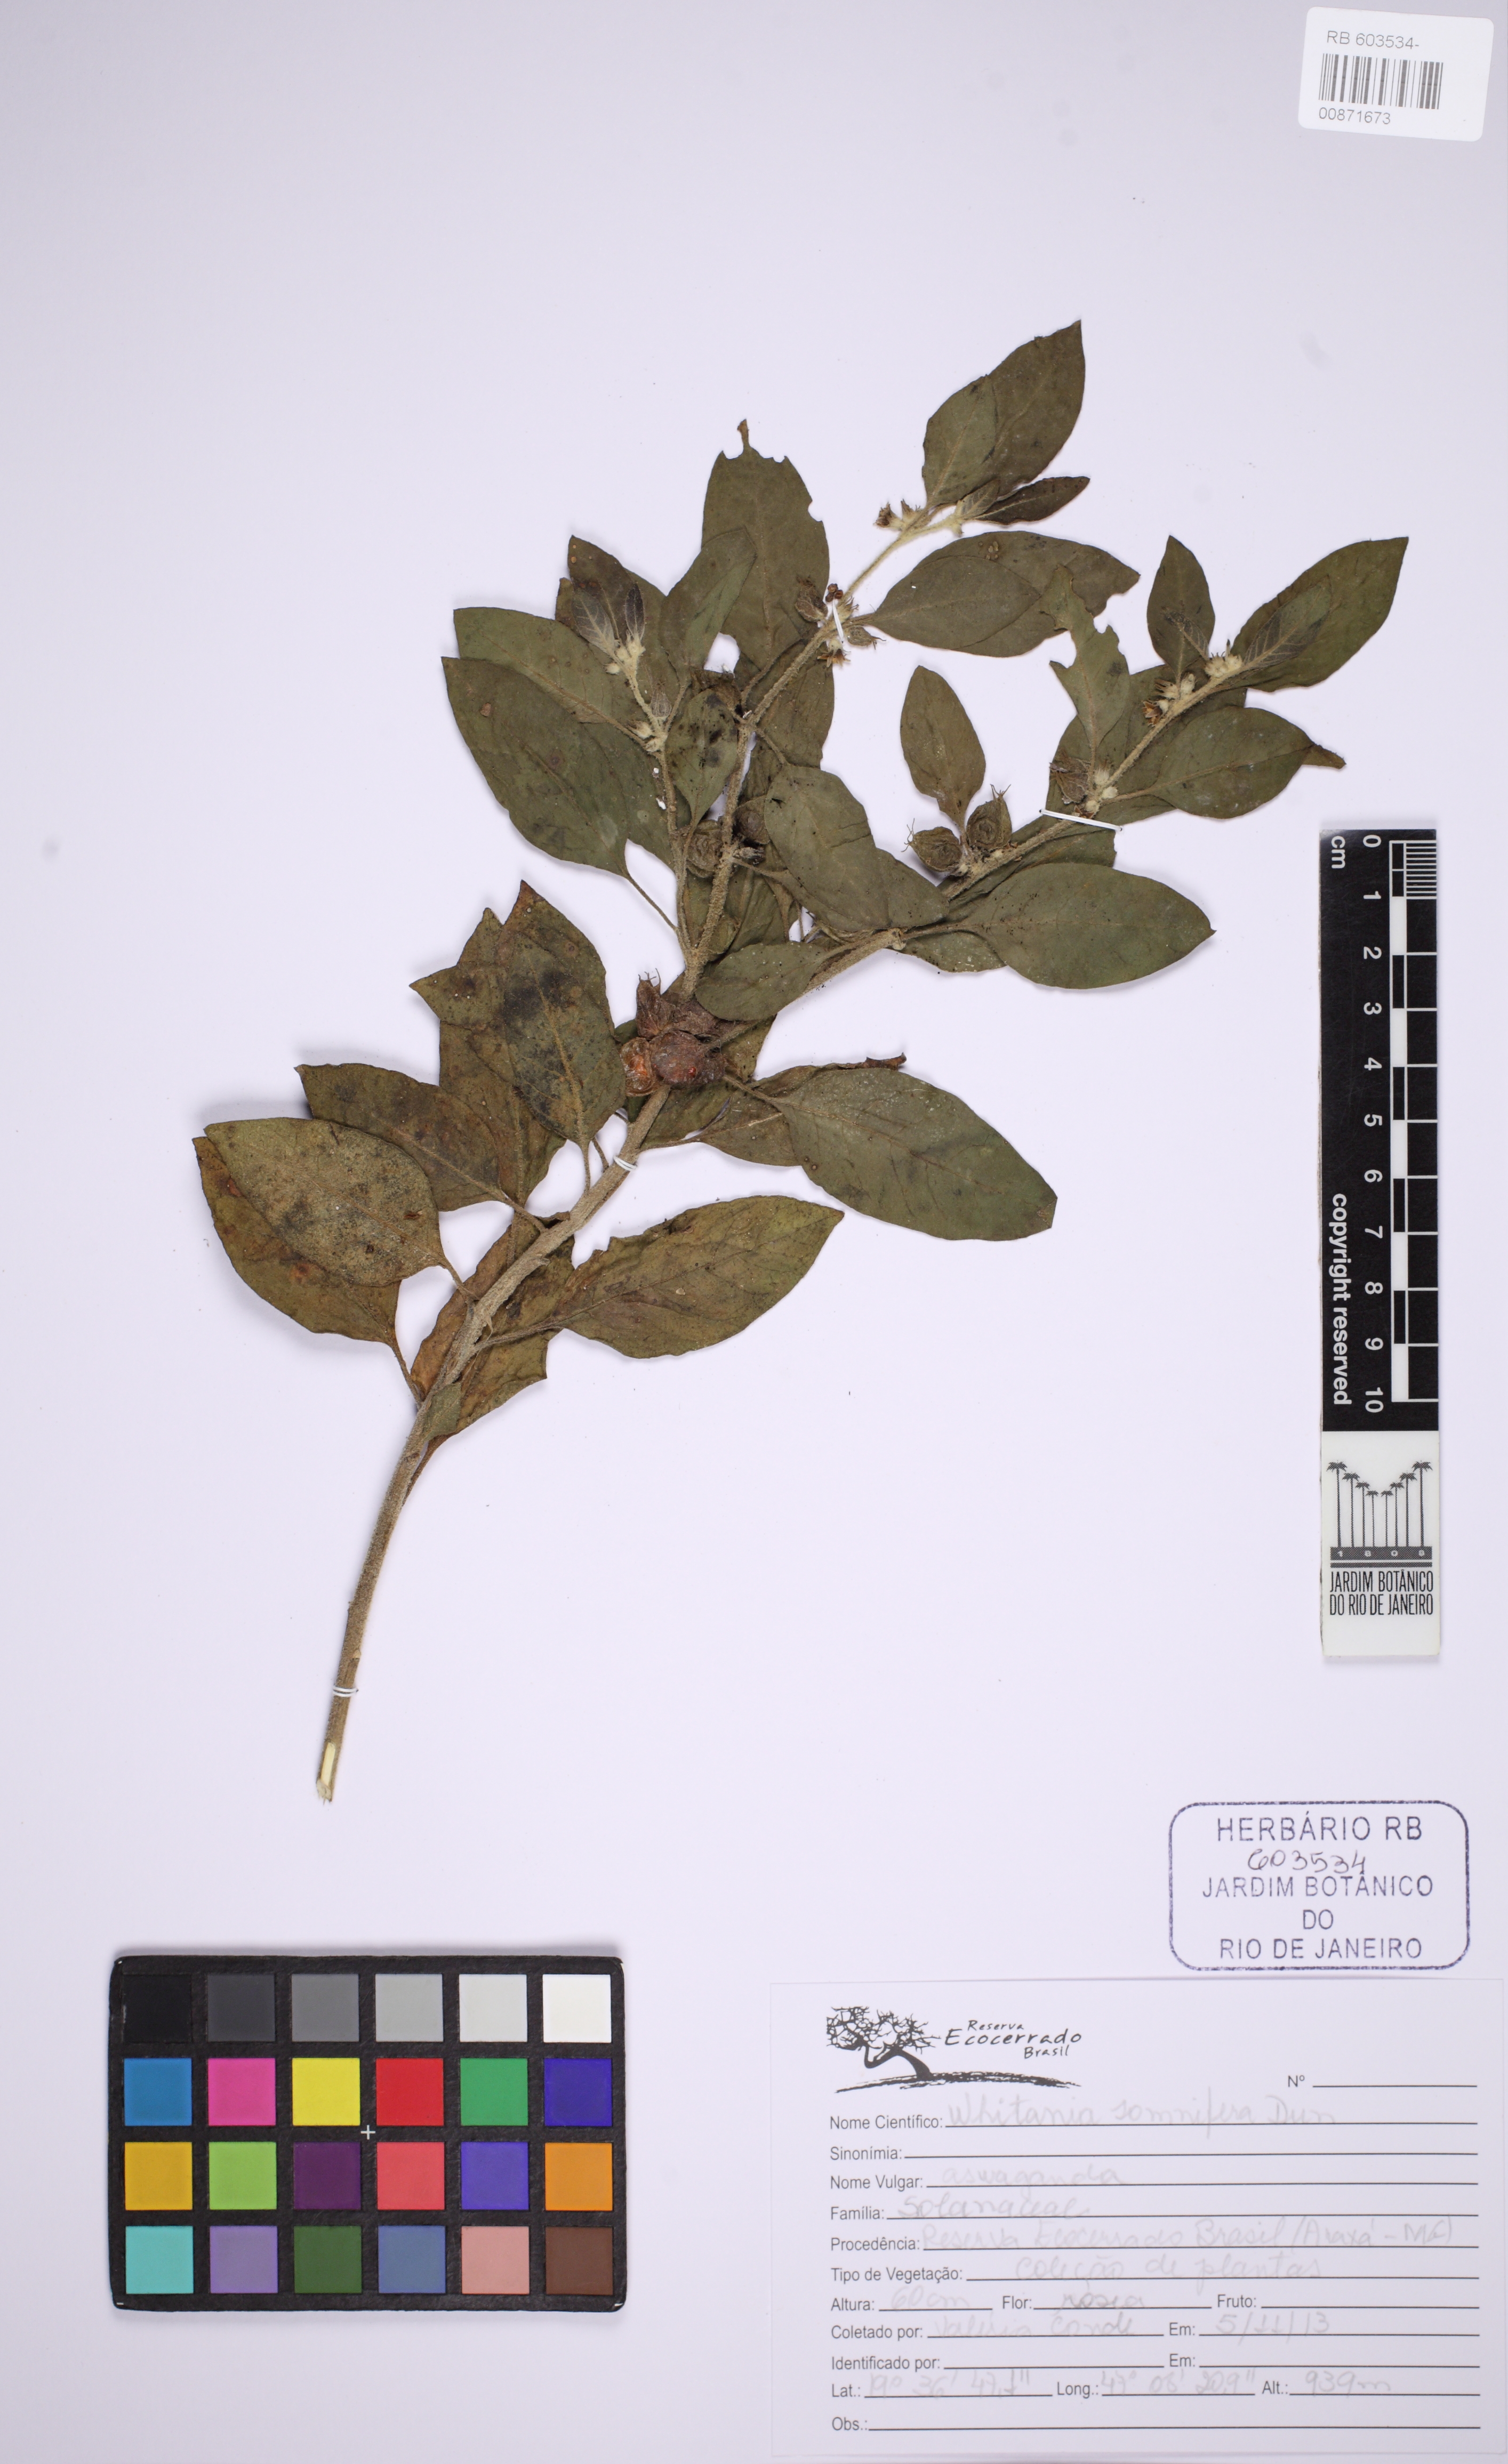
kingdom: Plantae
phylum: Tracheophyta
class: Magnoliopsida
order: Solanales
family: Solanaceae
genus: Withania
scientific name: Withania somnifera
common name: Winter-cherry
